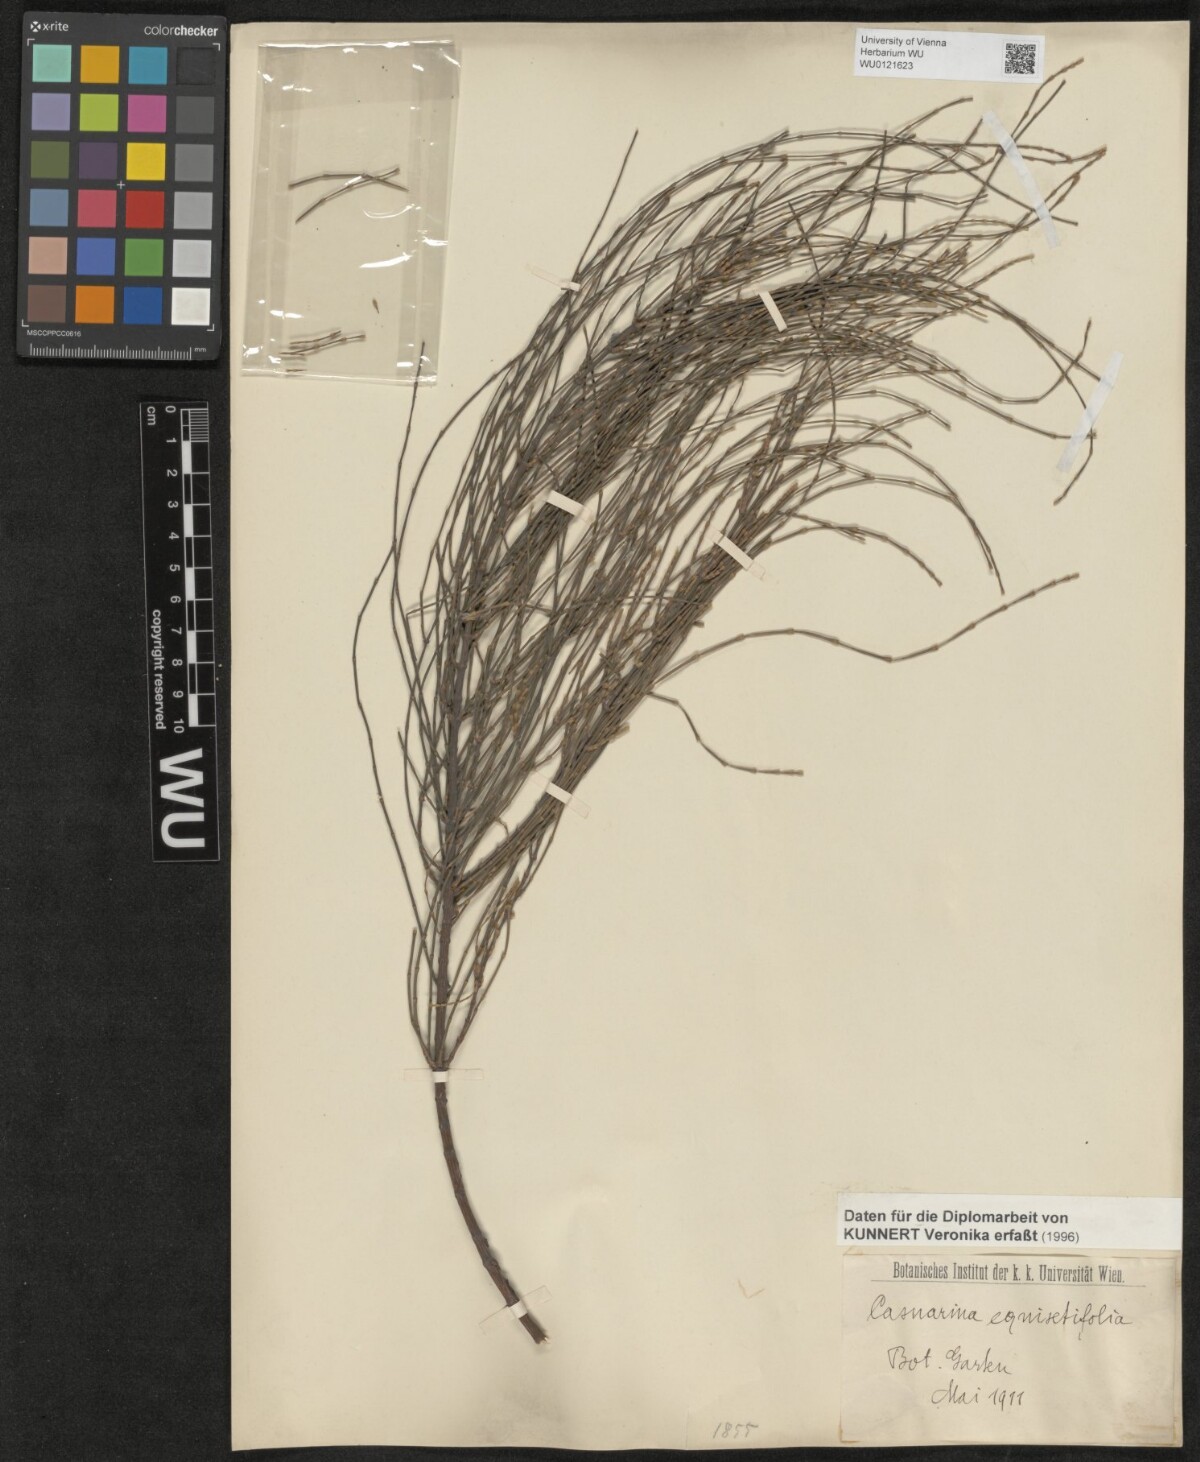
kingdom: Plantae
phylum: Tracheophyta
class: Magnoliopsida
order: Fagales
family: Casuarinaceae
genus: Casuarina
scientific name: Casuarina equisetifolia
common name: Beach sheoak
